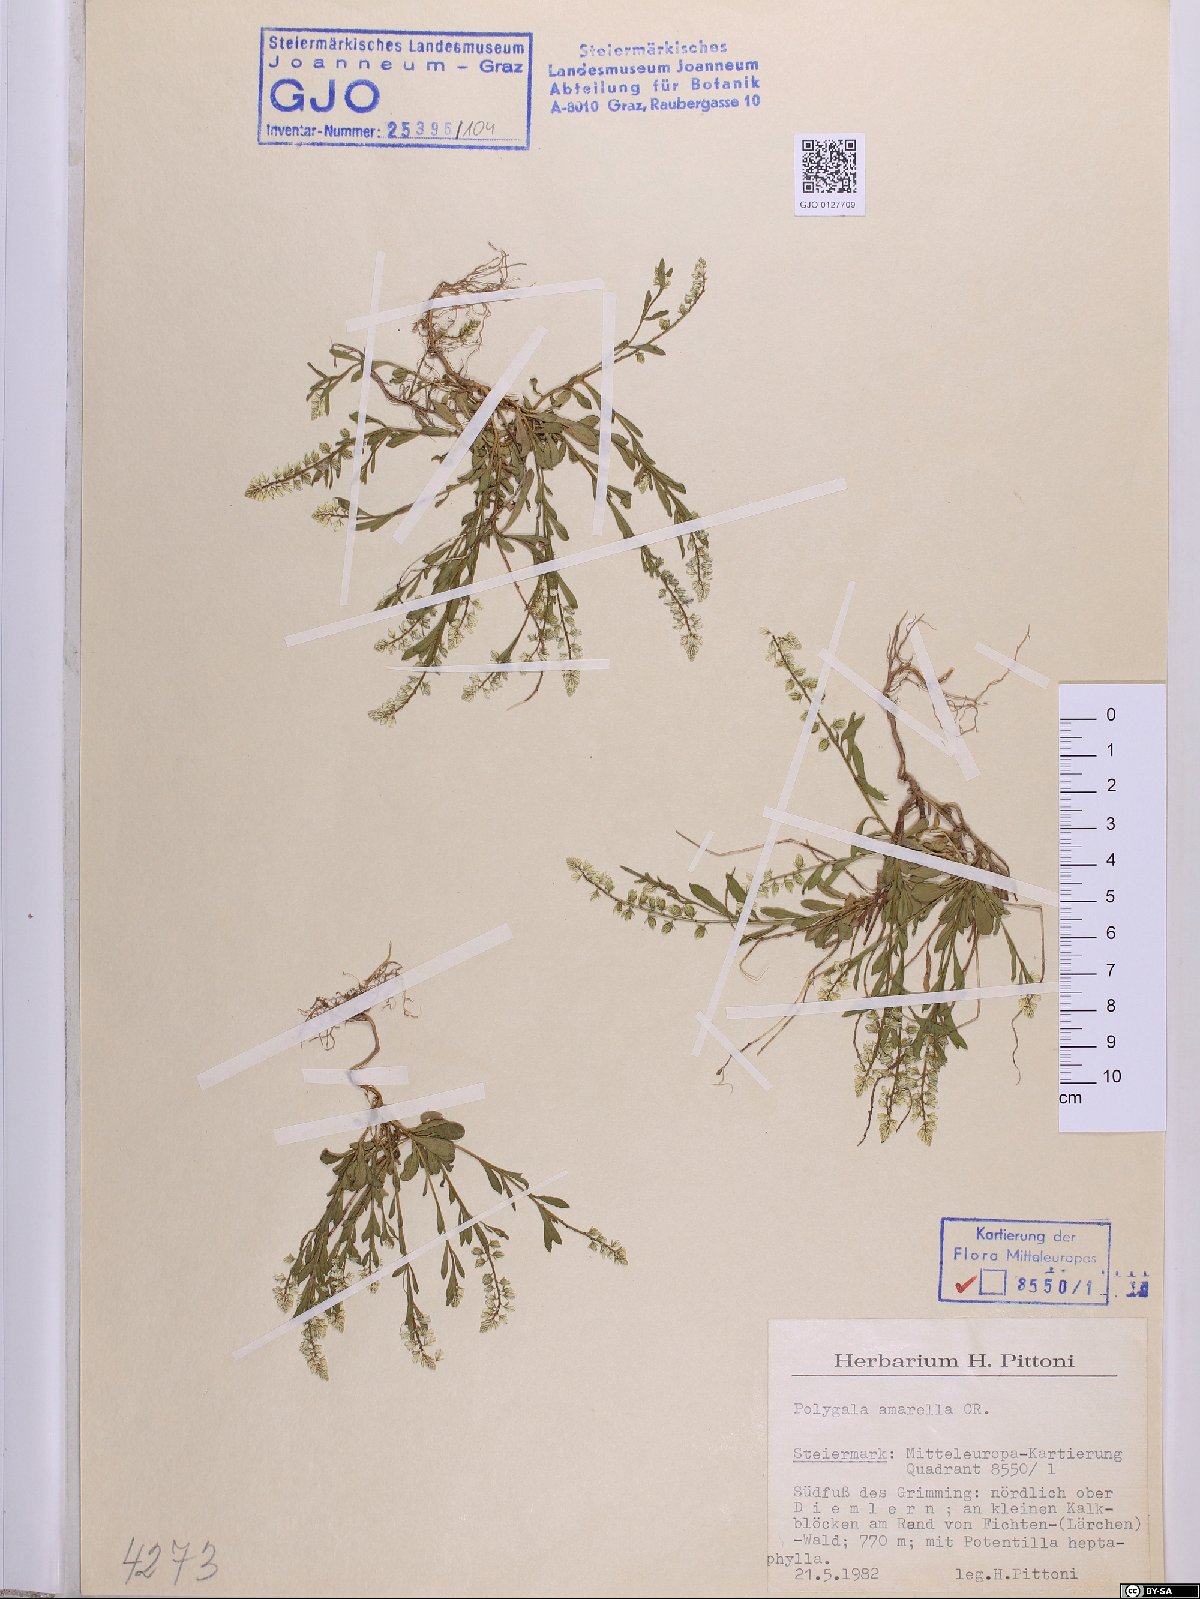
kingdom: Plantae
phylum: Tracheophyta
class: Magnoliopsida
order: Fabales
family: Polygalaceae
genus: Polygala
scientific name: Polygala amarella
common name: Dwarf milkwort
